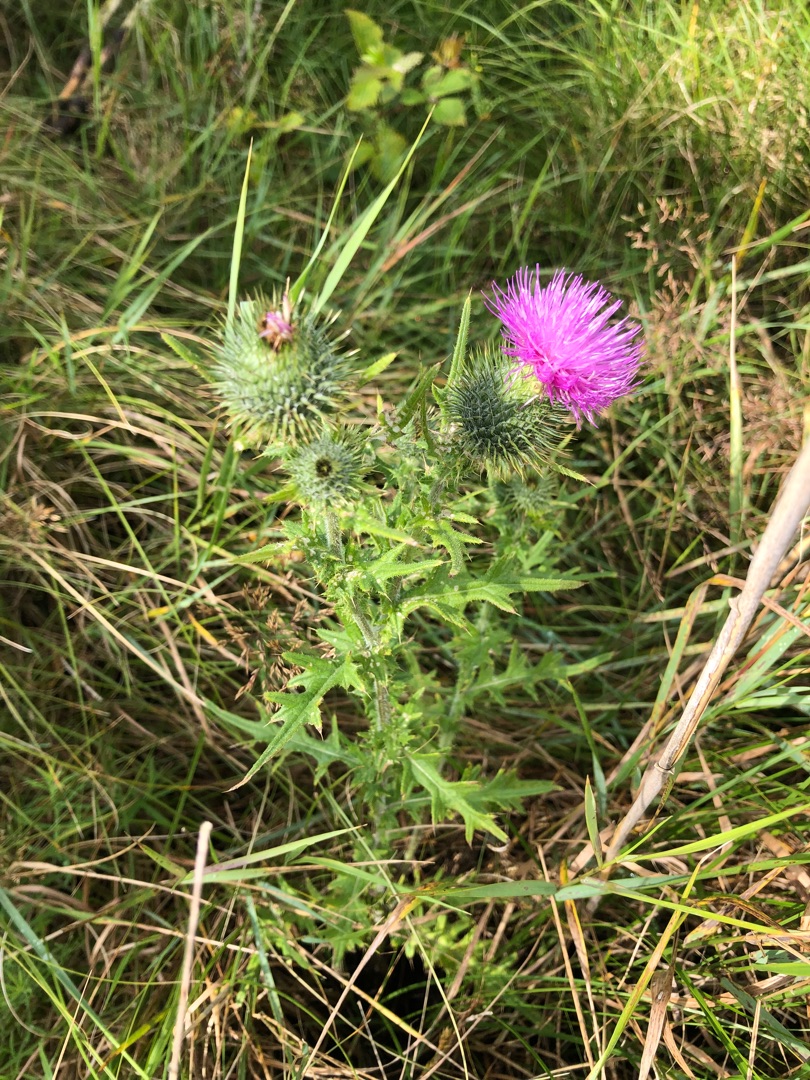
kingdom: Plantae
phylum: Tracheophyta
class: Magnoliopsida
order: Asterales
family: Asteraceae
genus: Cirsium
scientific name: Cirsium vulgare
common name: Horse-tidsel
